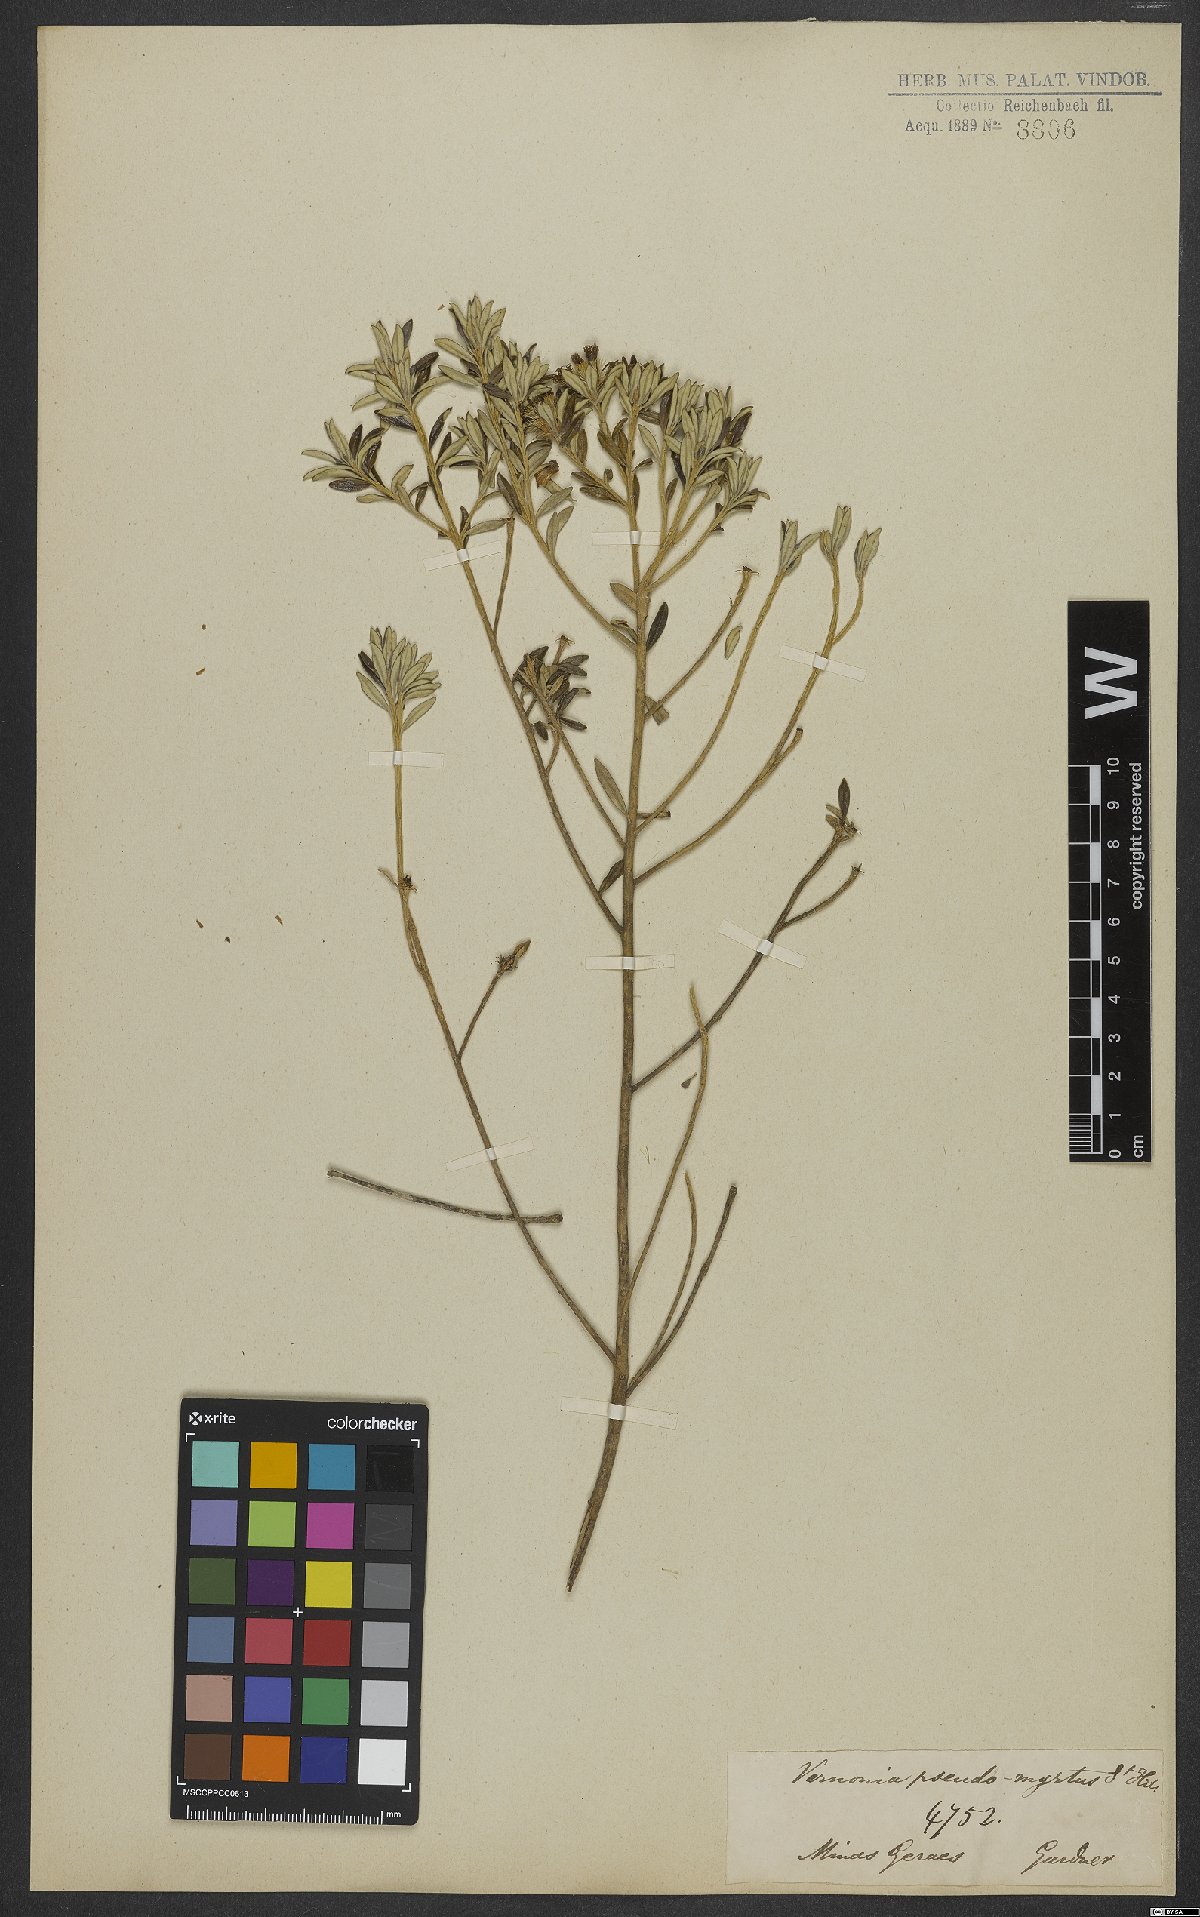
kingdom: Plantae
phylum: Tracheophyta
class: Magnoliopsida
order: Asterales
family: Asteraceae
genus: Piptolepis
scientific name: Piptolepis buxoides
